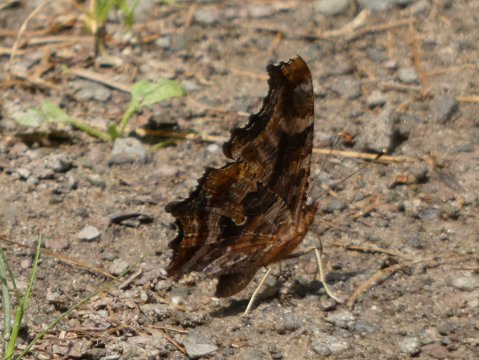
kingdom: Animalia
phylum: Arthropoda
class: Insecta
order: Lepidoptera
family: Nymphalidae
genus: Polygonia
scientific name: Polygonia comma
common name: Eastern Comma
